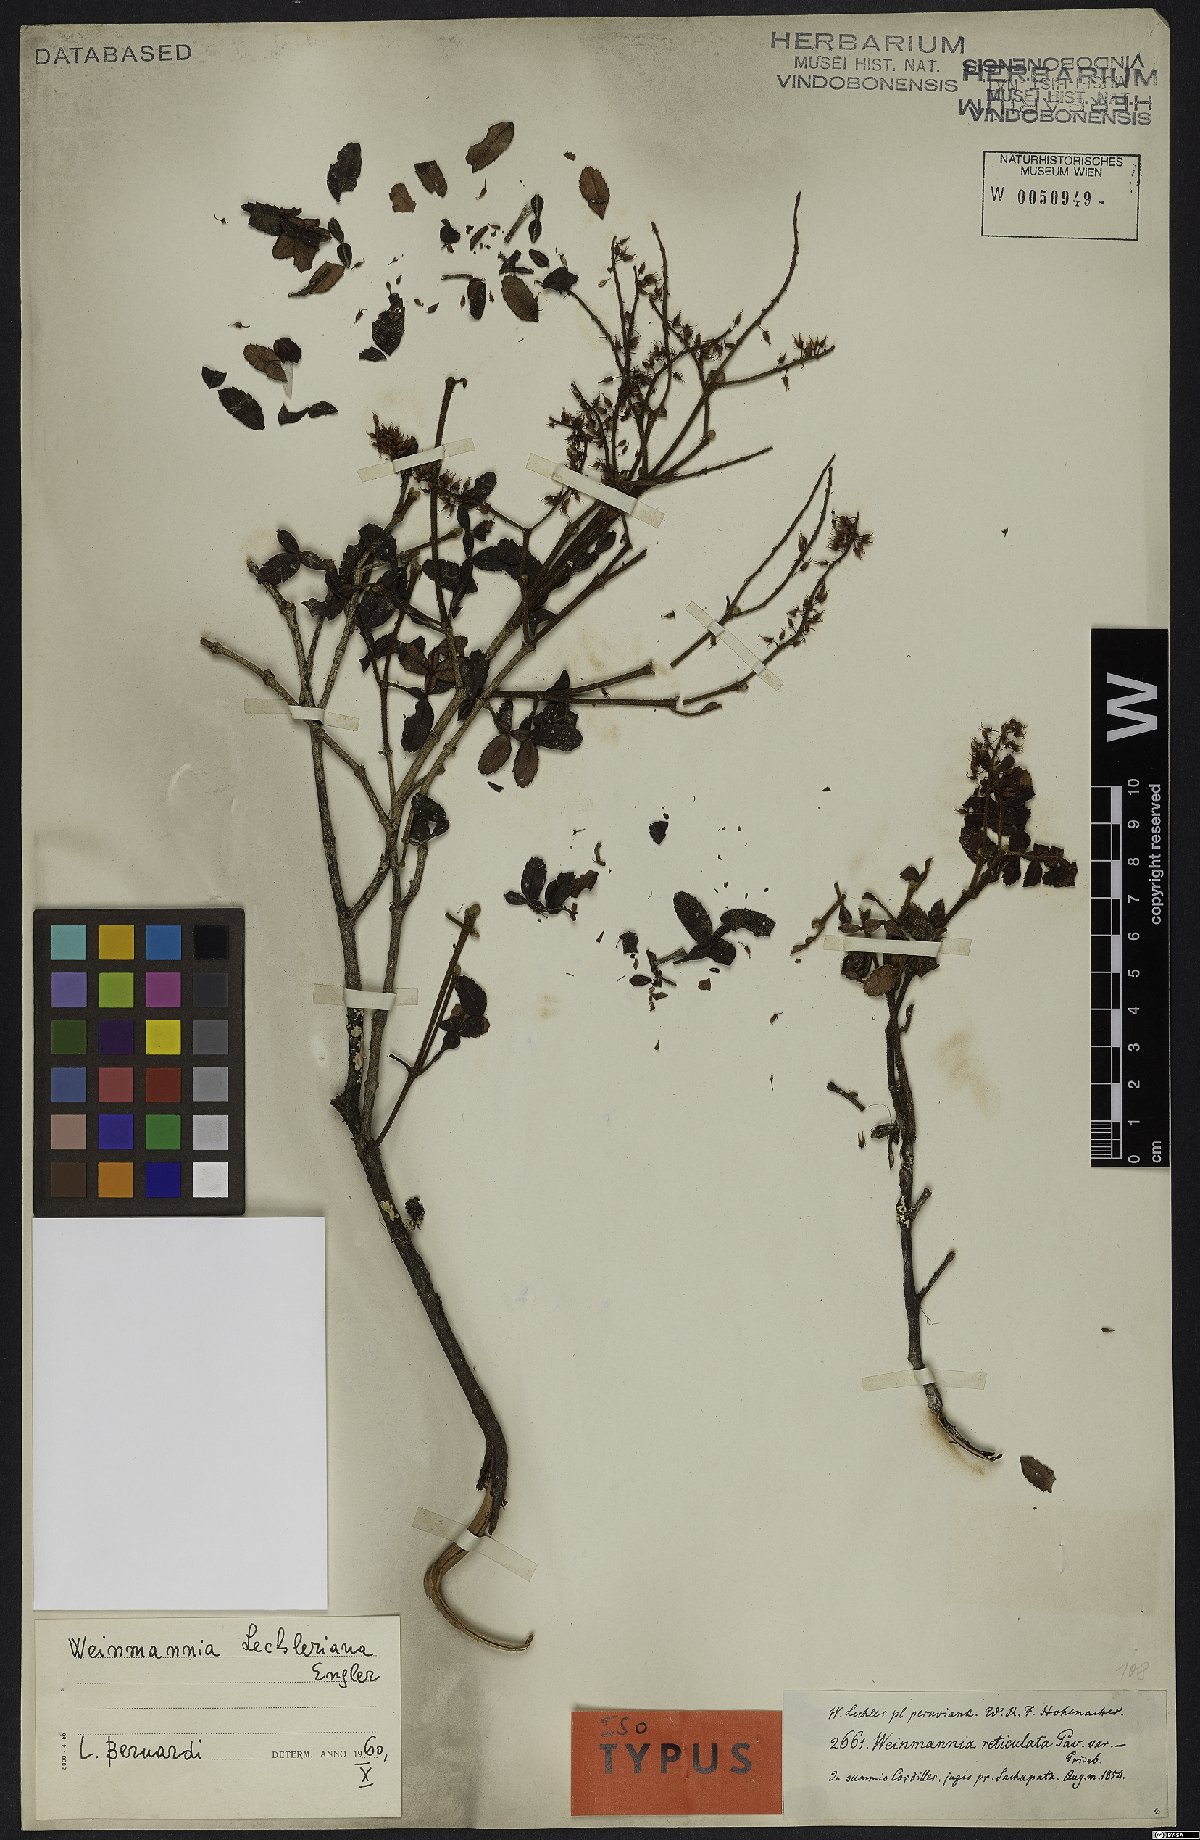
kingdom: Plantae
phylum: Tracheophyta
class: Magnoliopsida
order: Oxalidales
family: Cunoniaceae
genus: Weinmannia
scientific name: Weinmannia lechleriana
